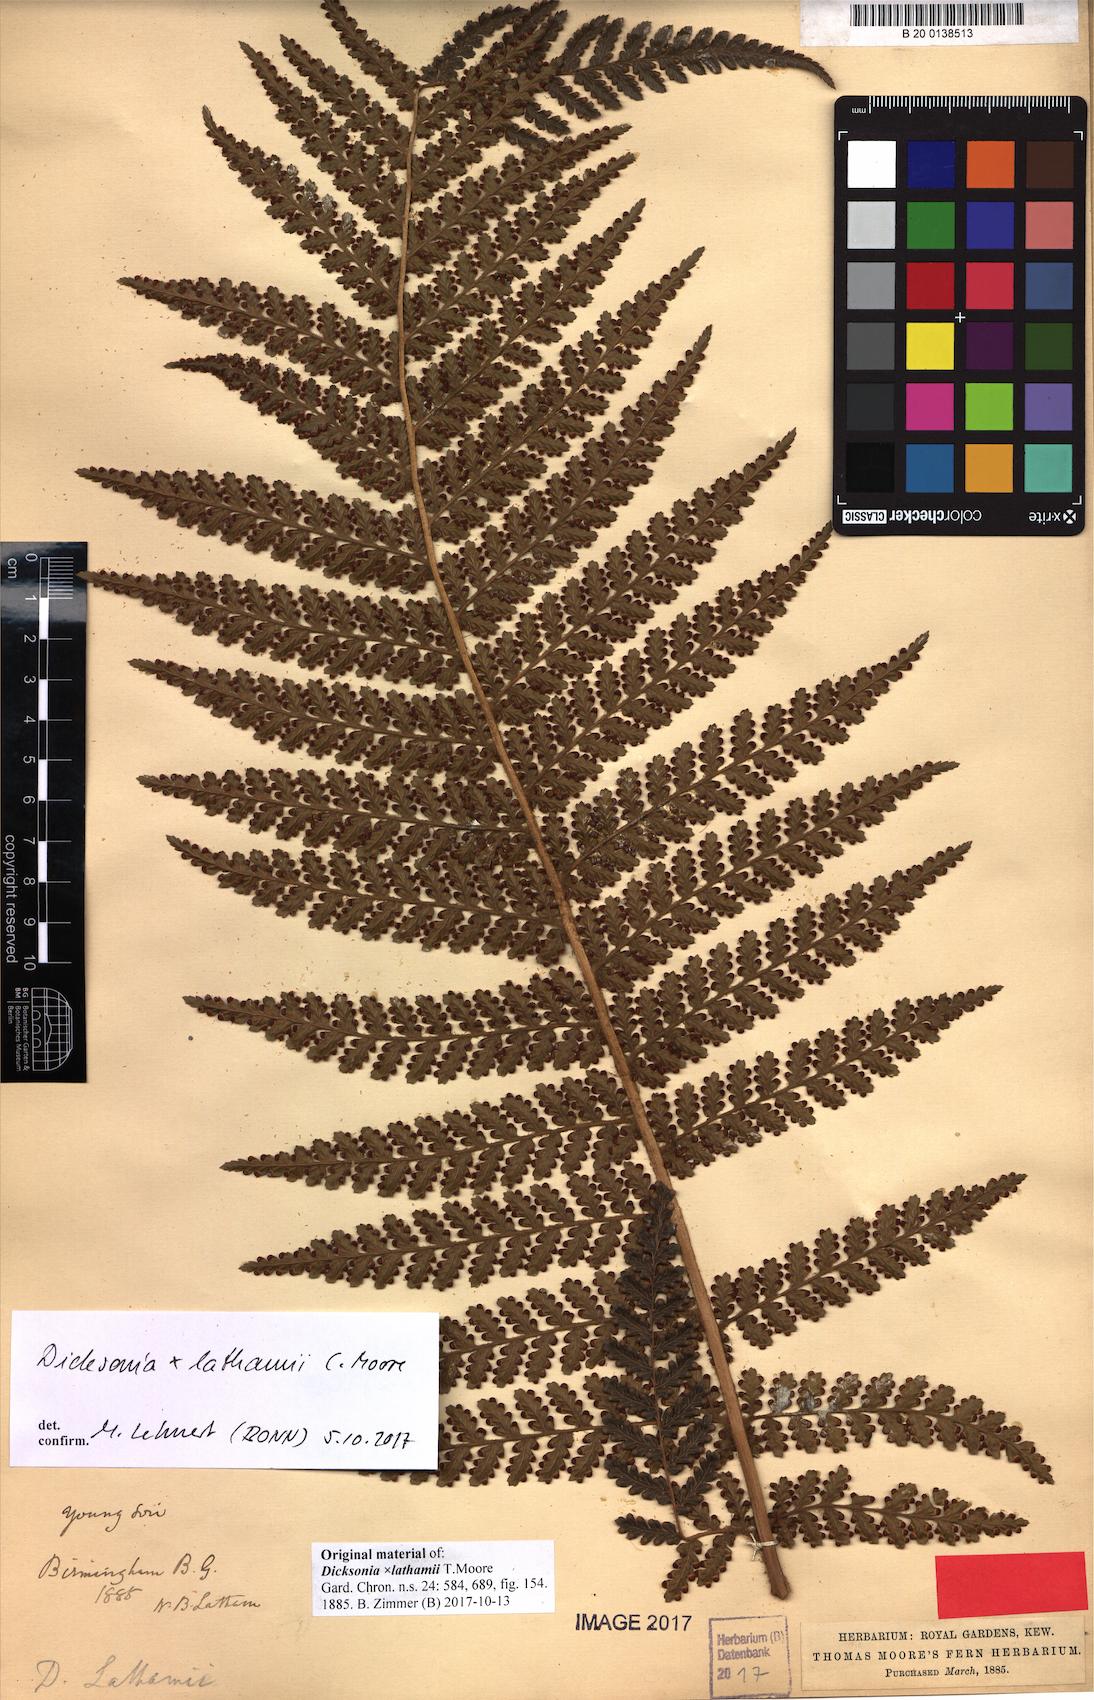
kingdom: Plantae
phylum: Tracheophyta
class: Polypodiopsida
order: Cyatheales
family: Dicksoniaceae
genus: Dicksonia
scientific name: Dicksonia lathamii
